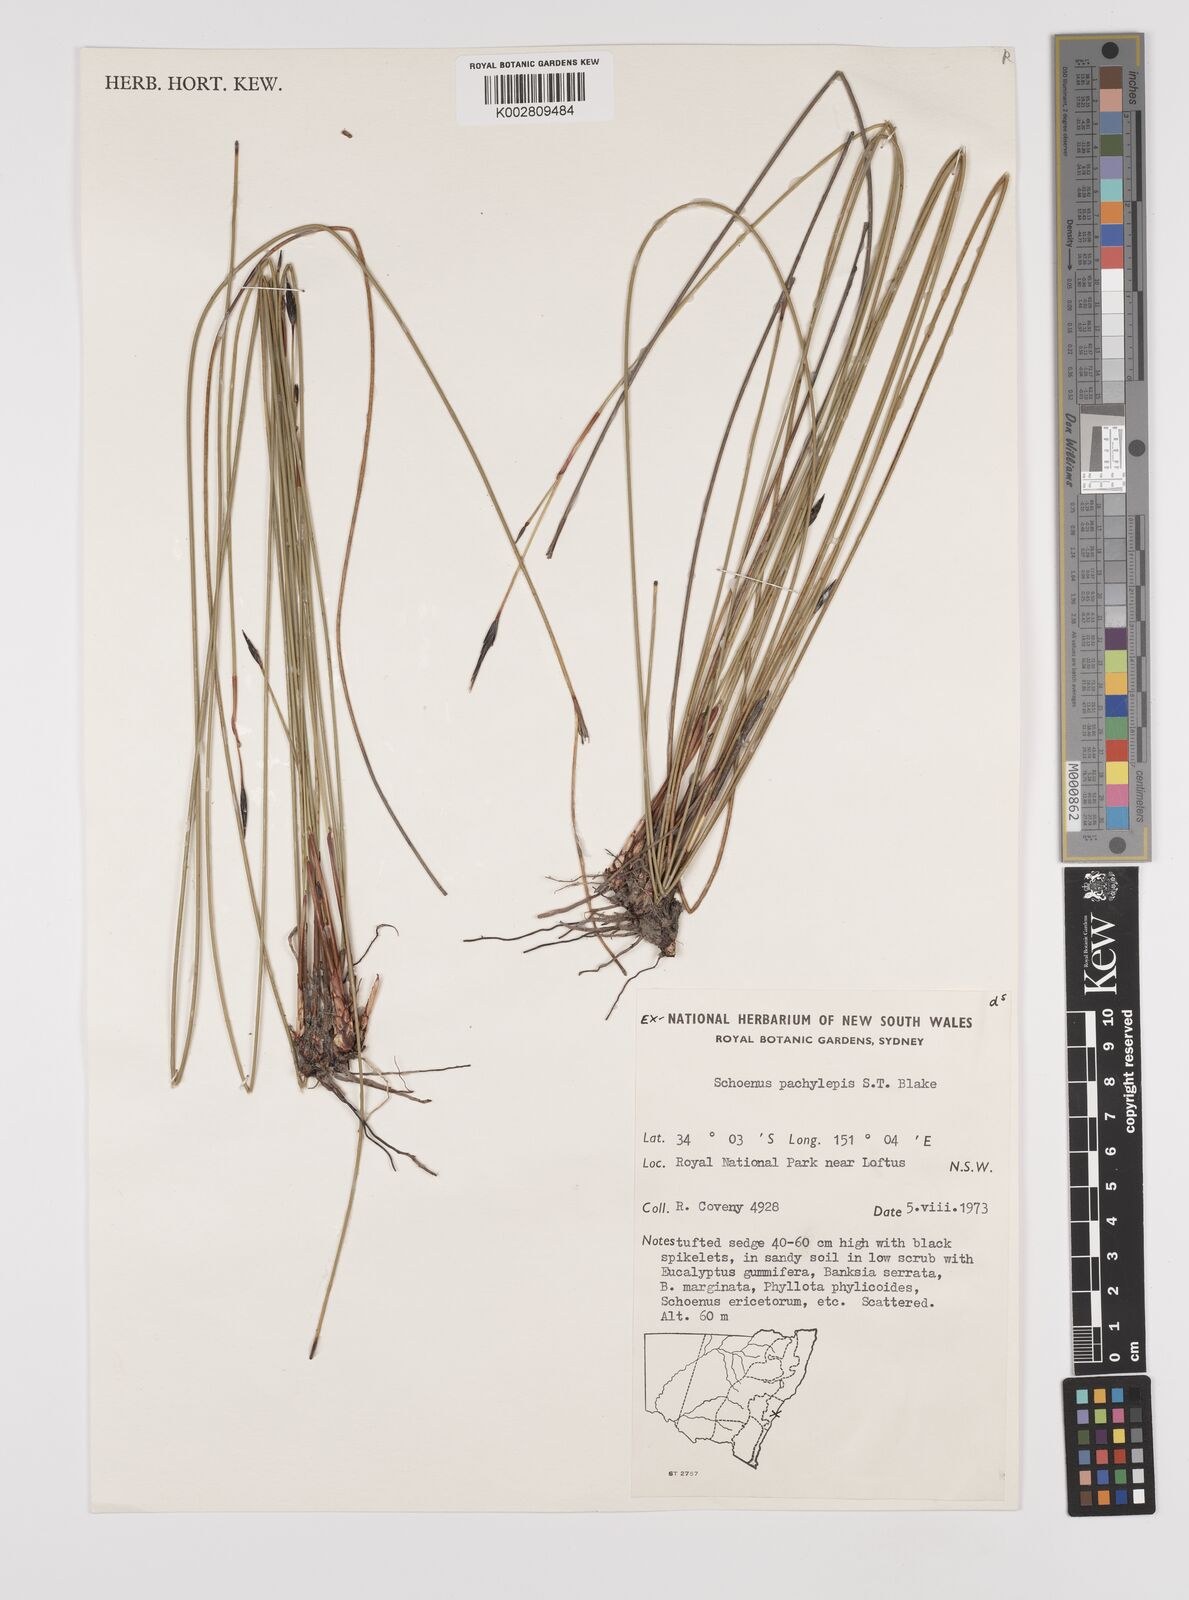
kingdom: Plantae
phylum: Tracheophyta
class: Liliopsida
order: Poales
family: Cyperaceae
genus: Schoenus
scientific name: Schoenus lepidosperma
